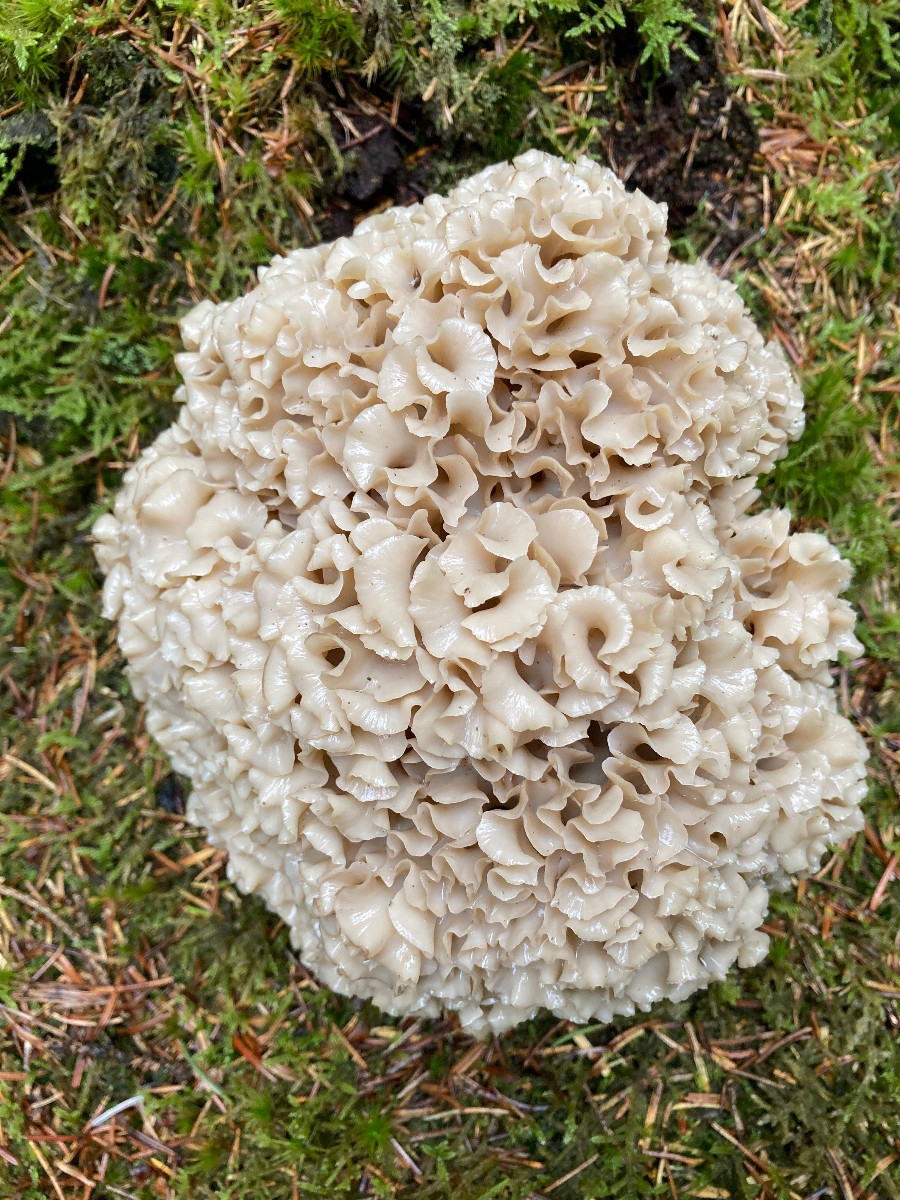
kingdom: Fungi
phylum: Basidiomycota
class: Agaricomycetes
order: Polyporales
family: Sparassidaceae
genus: Sparassis
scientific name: Sparassis crispa
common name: kruset blomkålssvamp
